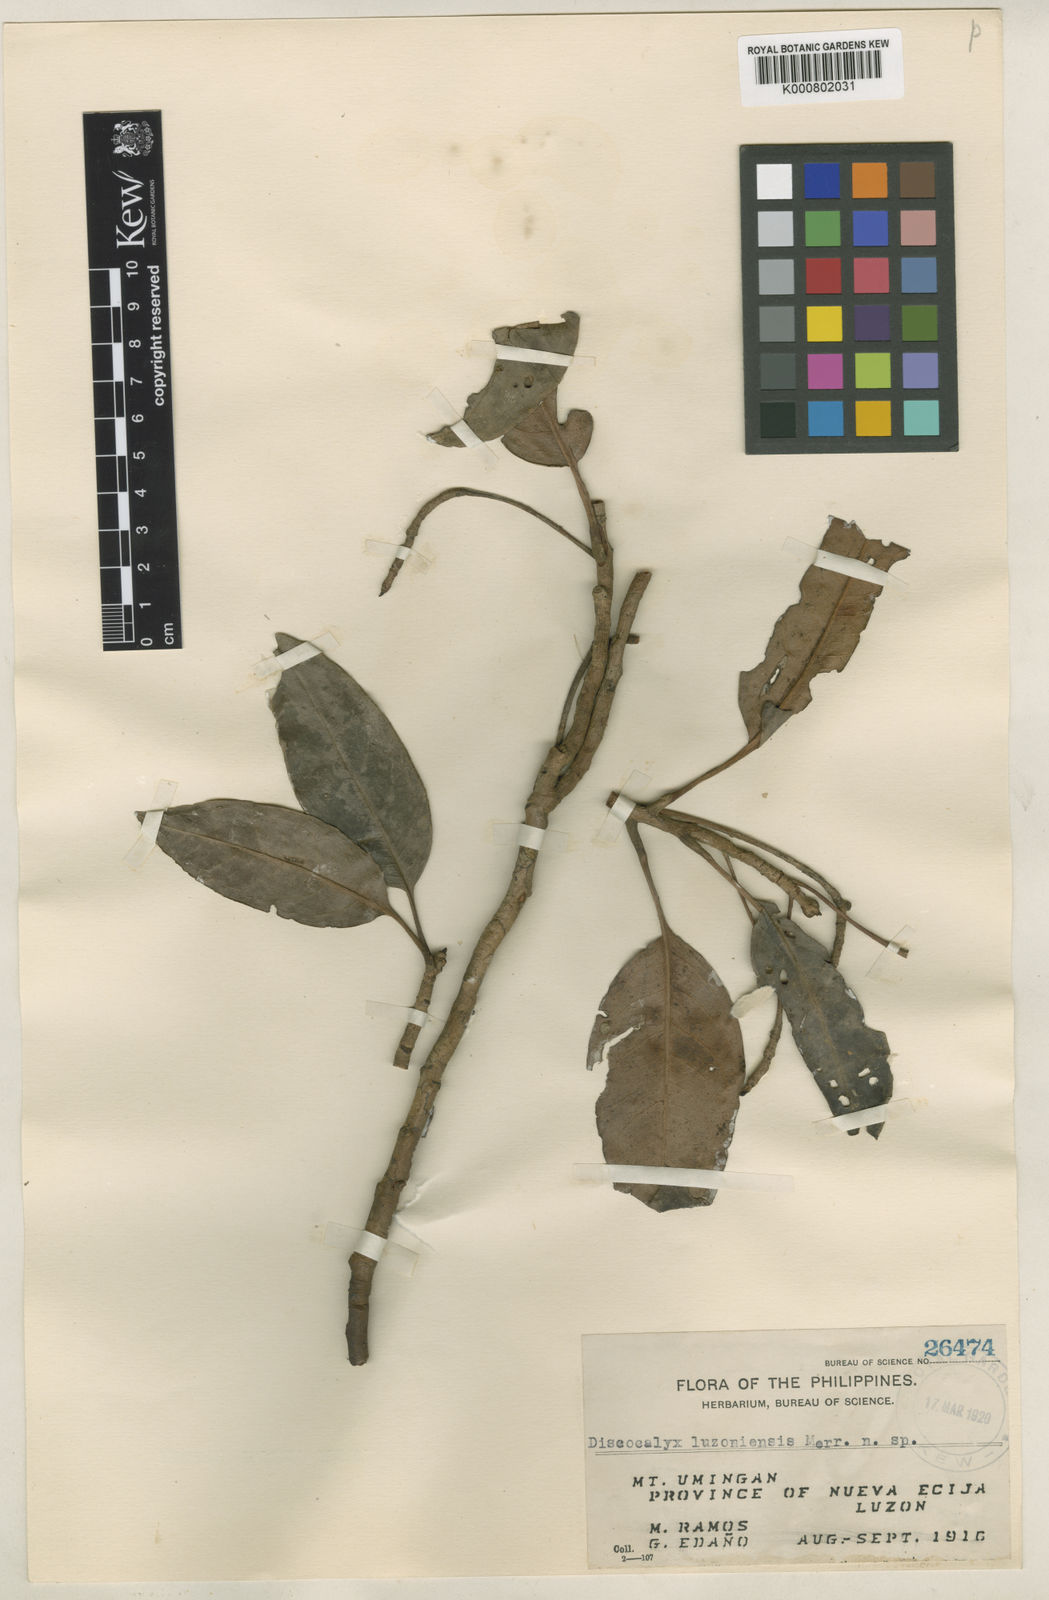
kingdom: Plantae
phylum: Tracheophyta
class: Magnoliopsida
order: Ericales
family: Primulaceae
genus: Discocalyx
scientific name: Discocalyx luzoniensis
